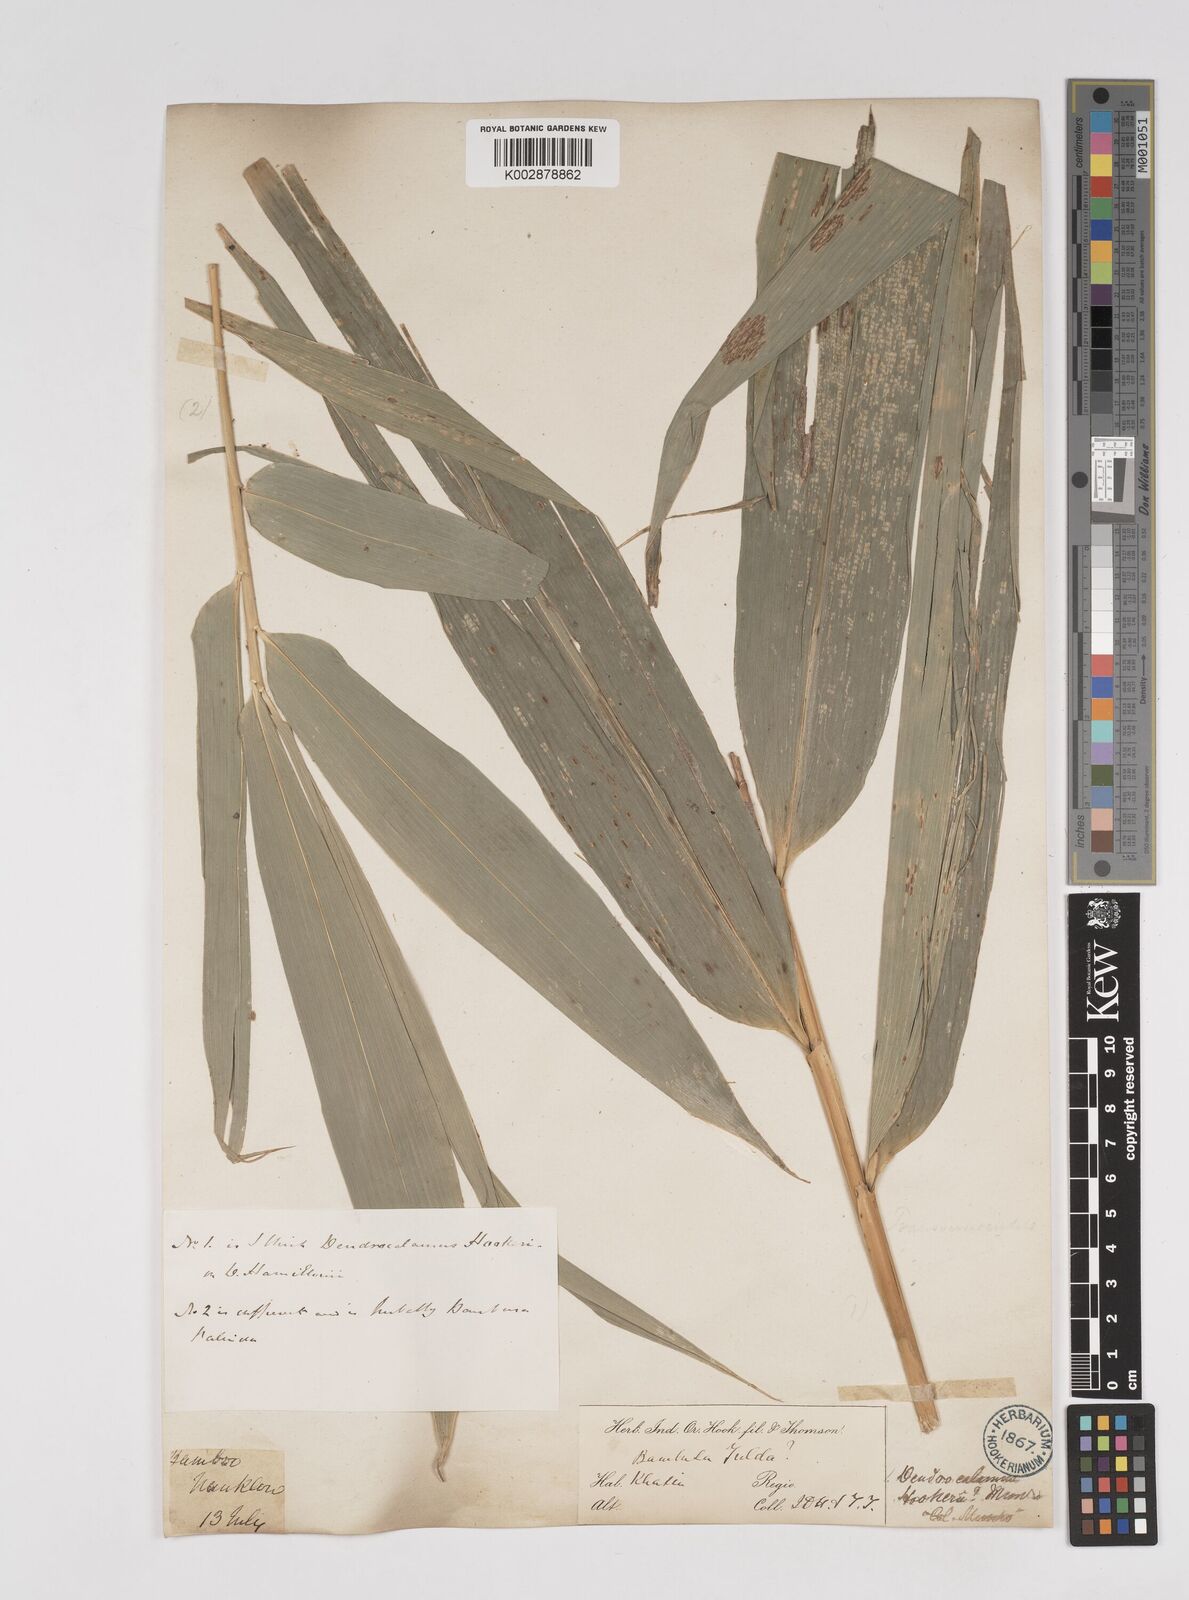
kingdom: Plantae
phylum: Tracheophyta
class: Liliopsida
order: Poales
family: Poaceae
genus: Dendrocalamus
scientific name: Dendrocalamus hookeri
